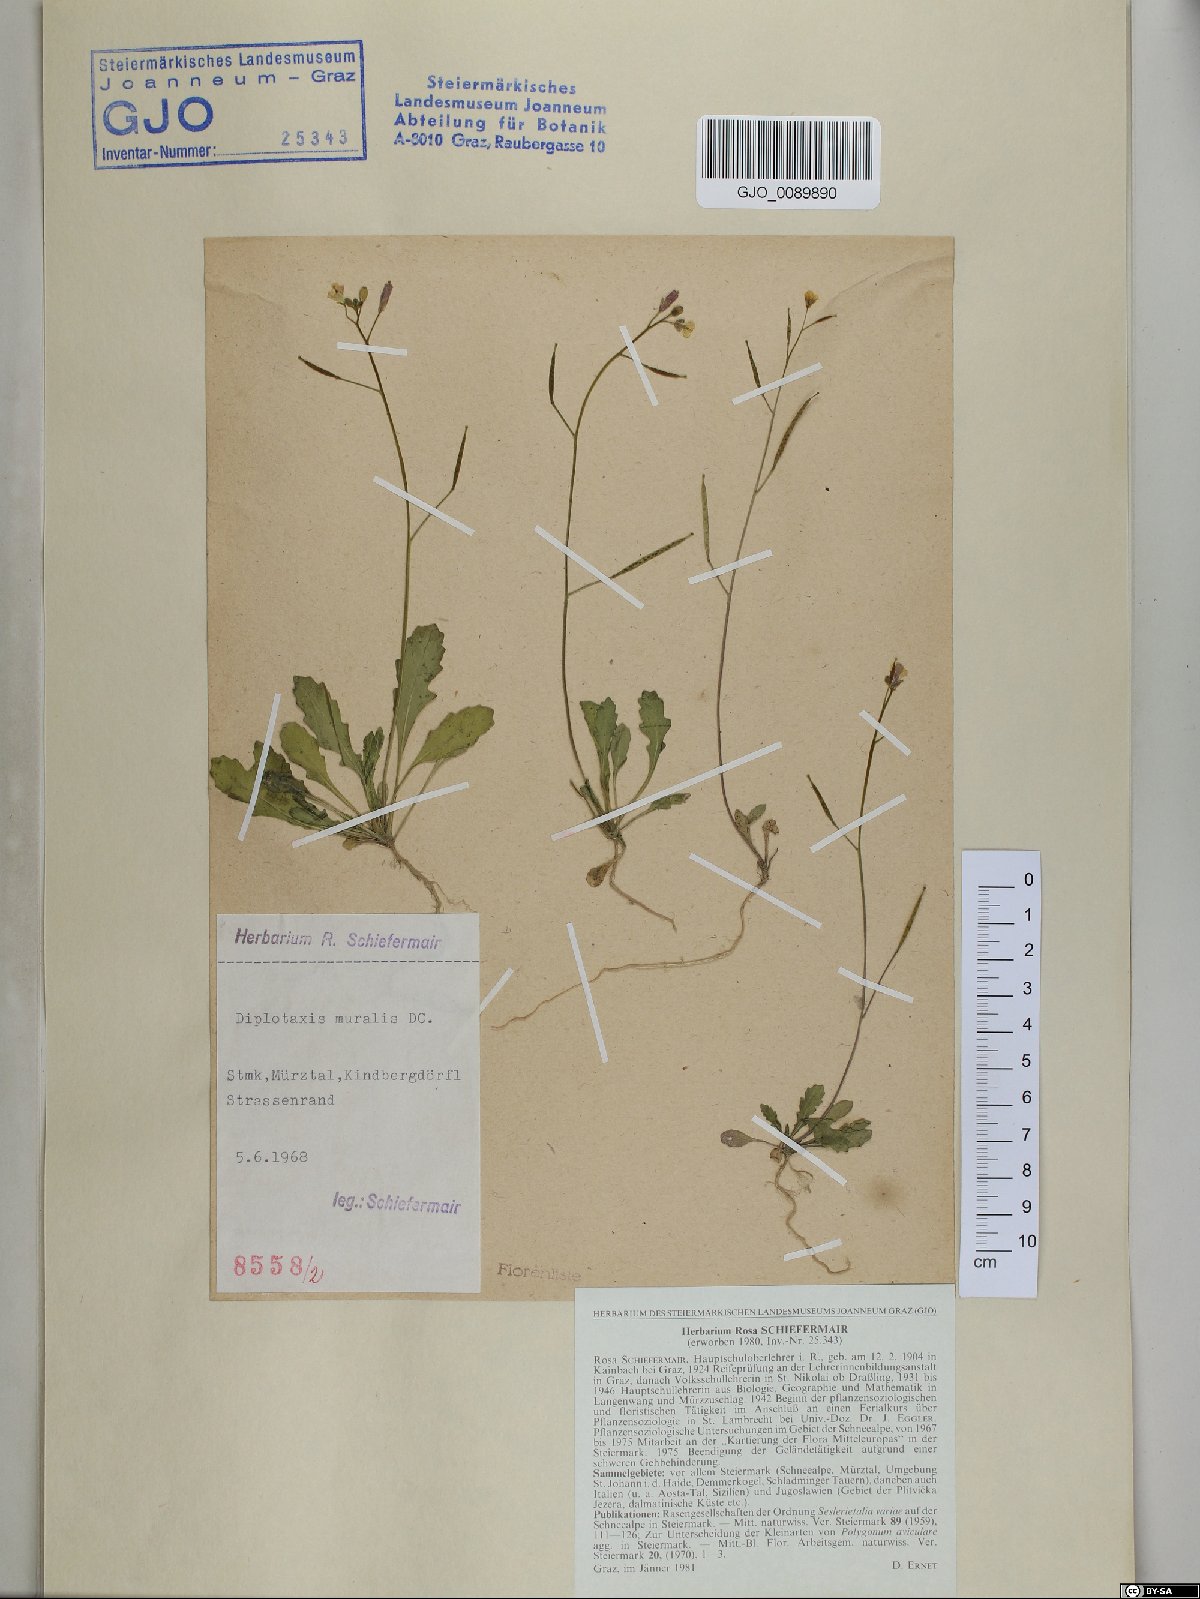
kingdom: Plantae
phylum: Tracheophyta
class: Magnoliopsida
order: Brassicales
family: Brassicaceae
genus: Diplotaxis
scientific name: Diplotaxis muralis
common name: Annual wall-rocket
